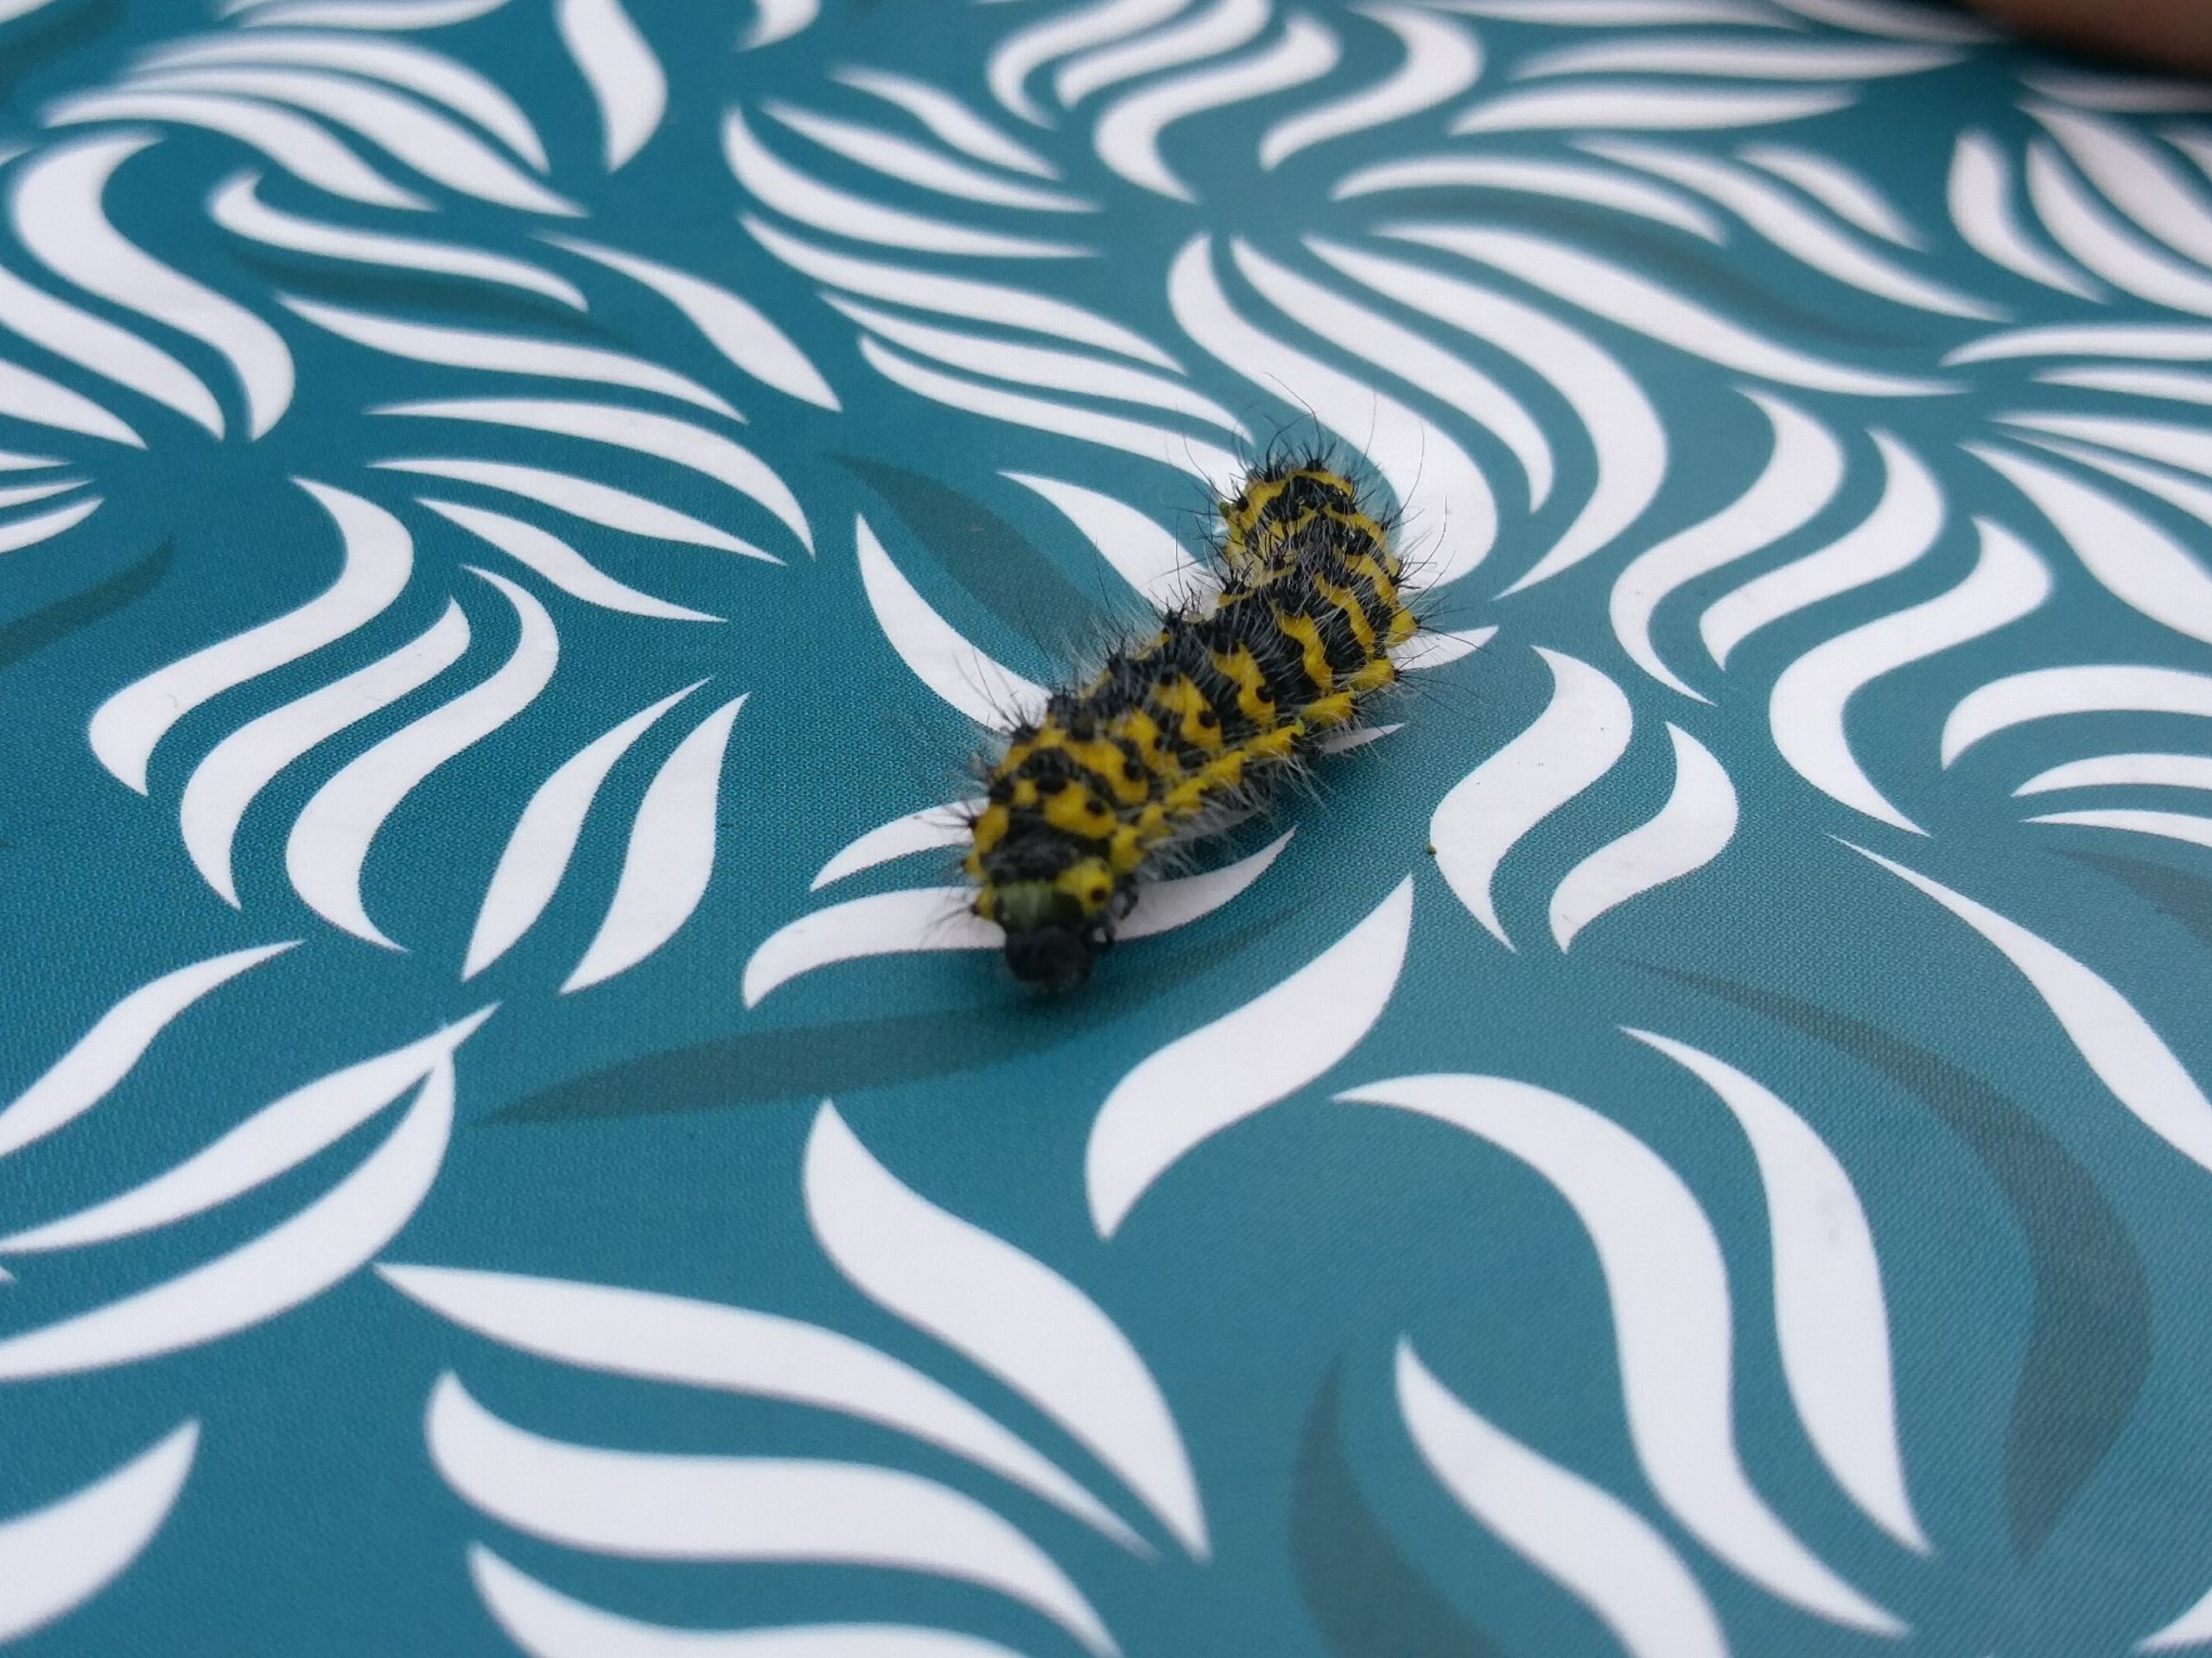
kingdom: Animalia
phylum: Arthropoda
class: Insecta
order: Lepidoptera
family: Saturniidae
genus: Saturnia
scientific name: Saturnia pavonia
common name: Lille natpåfugleøje
